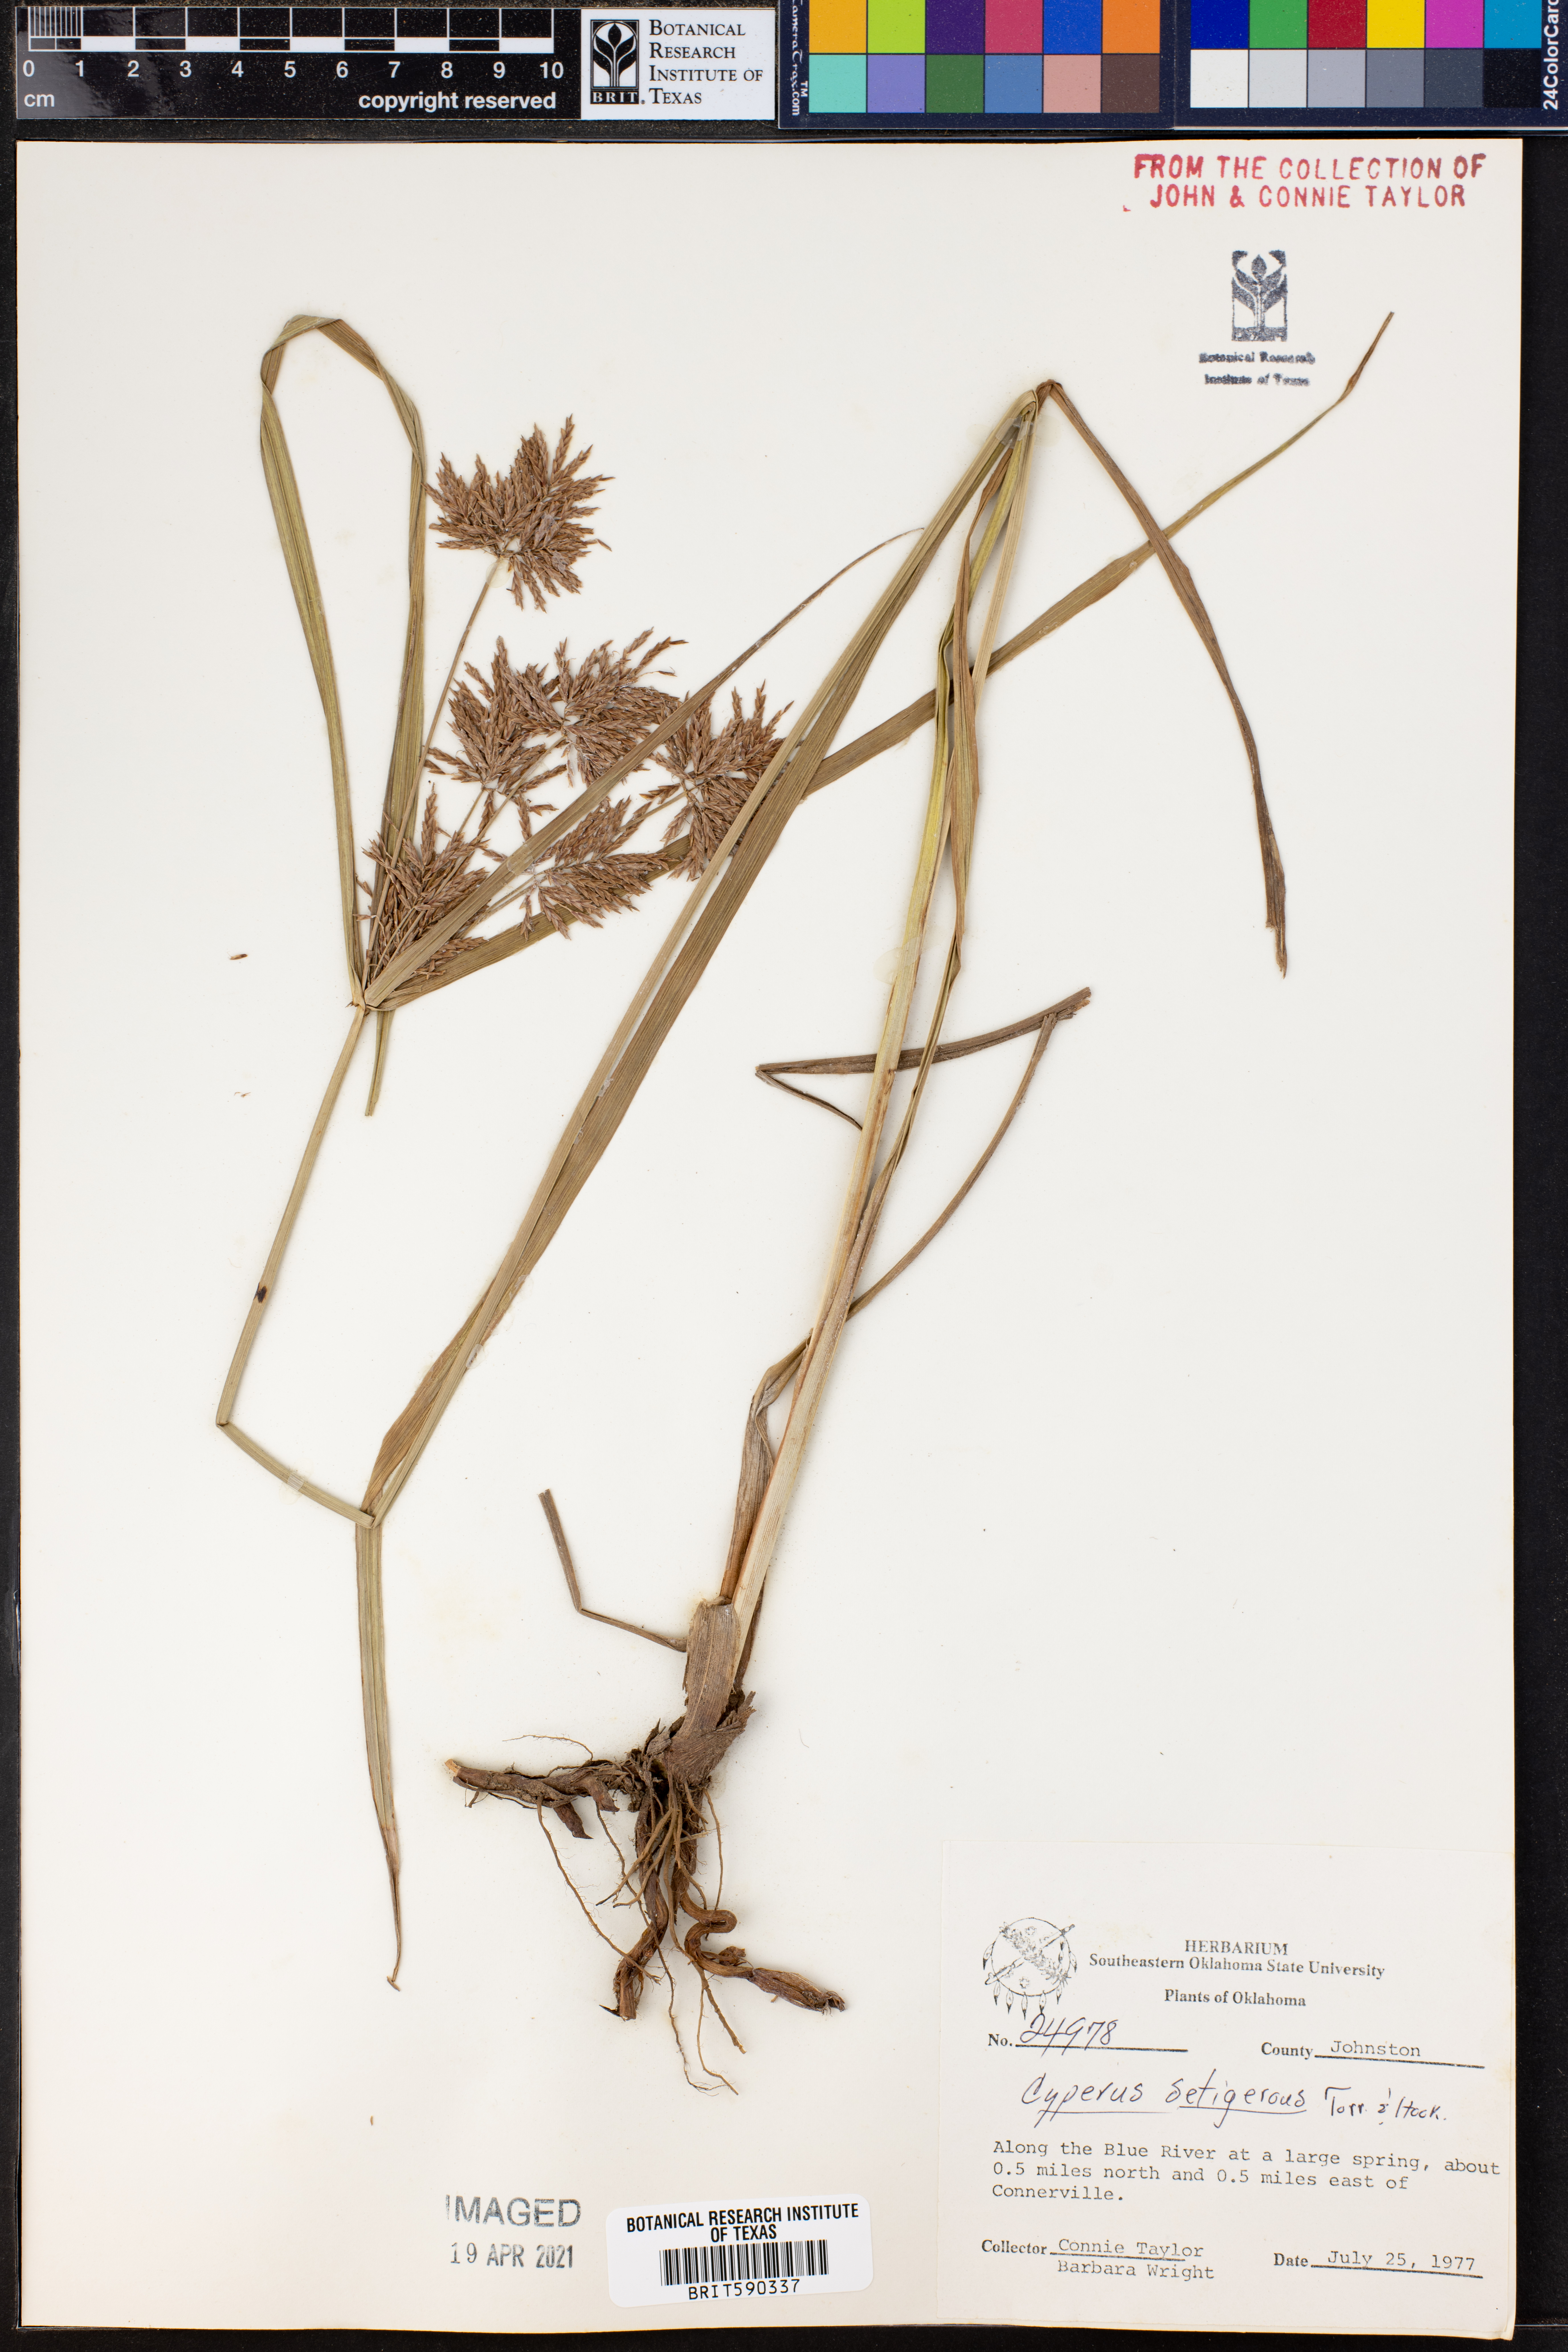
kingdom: Plantae
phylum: Tracheophyta
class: Liliopsida
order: Poales
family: Cyperaceae
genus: Cyperus
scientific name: Cyperus setigerus
